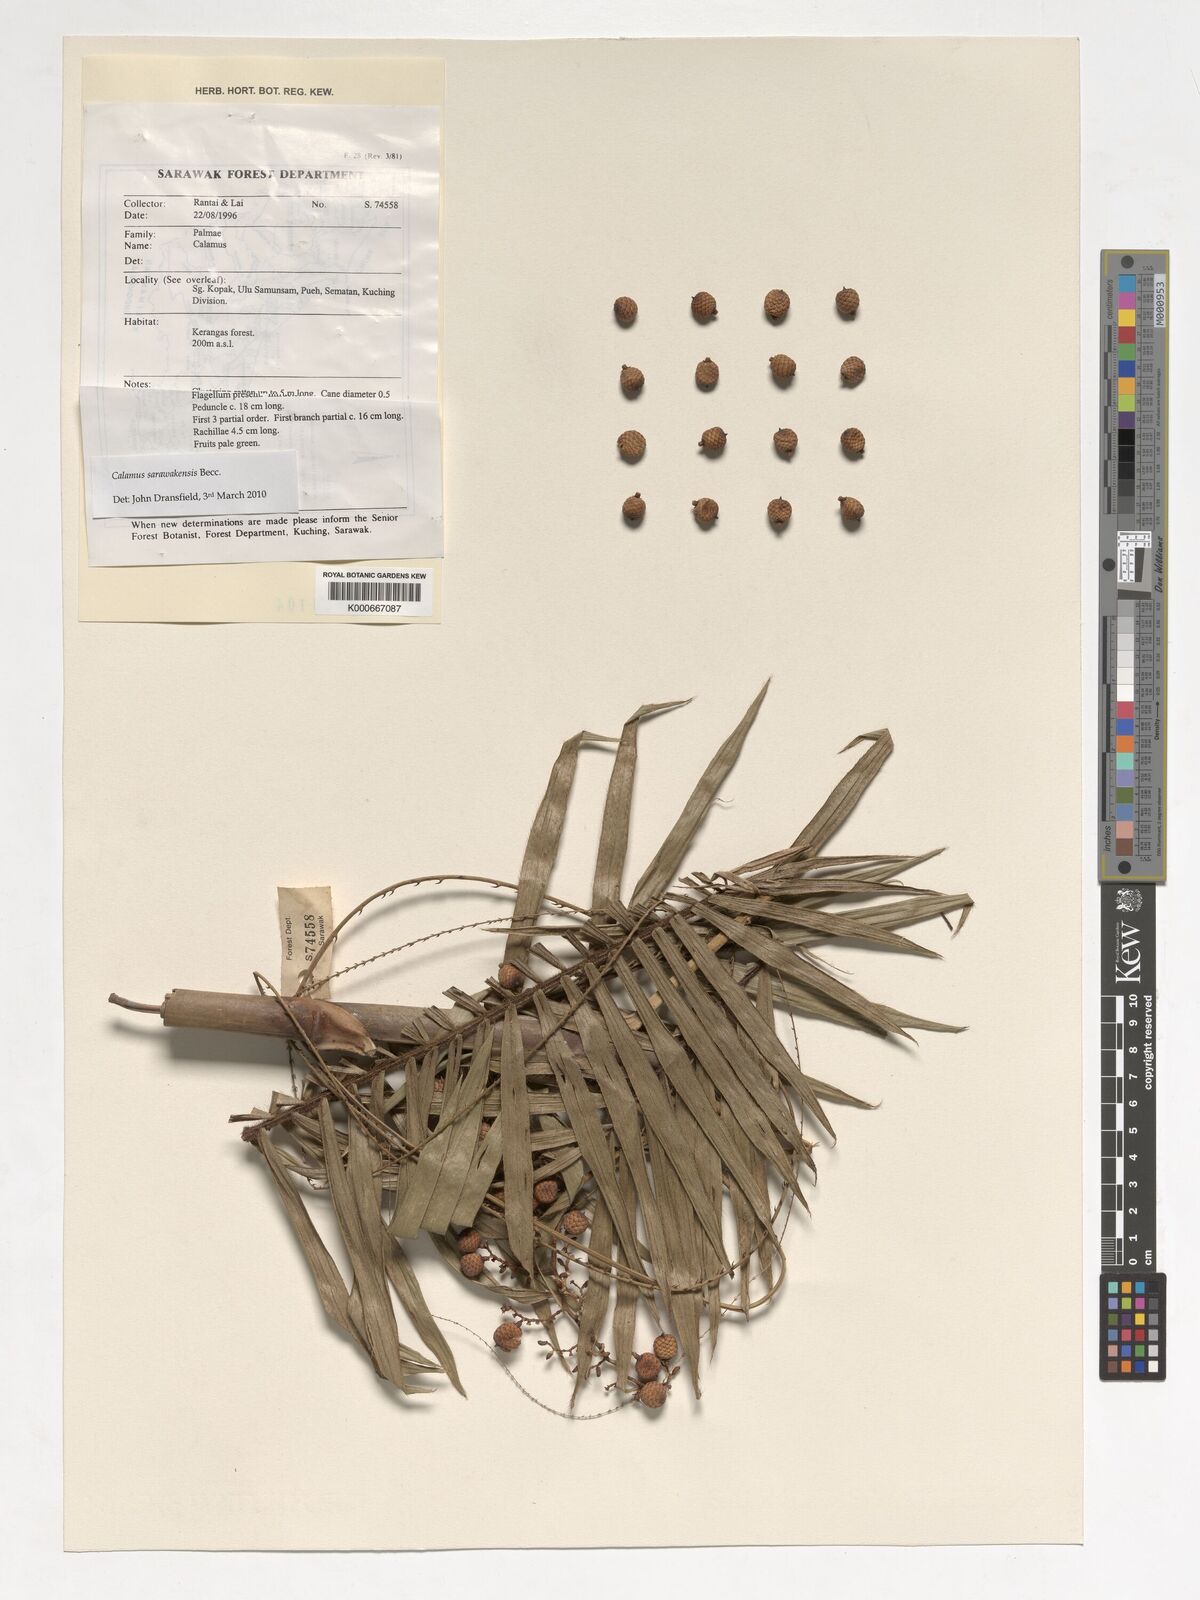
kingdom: Plantae
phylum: Tracheophyta
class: Liliopsida
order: Arecales
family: Arecaceae
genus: Calamus
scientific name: Calamus sarawakensis
